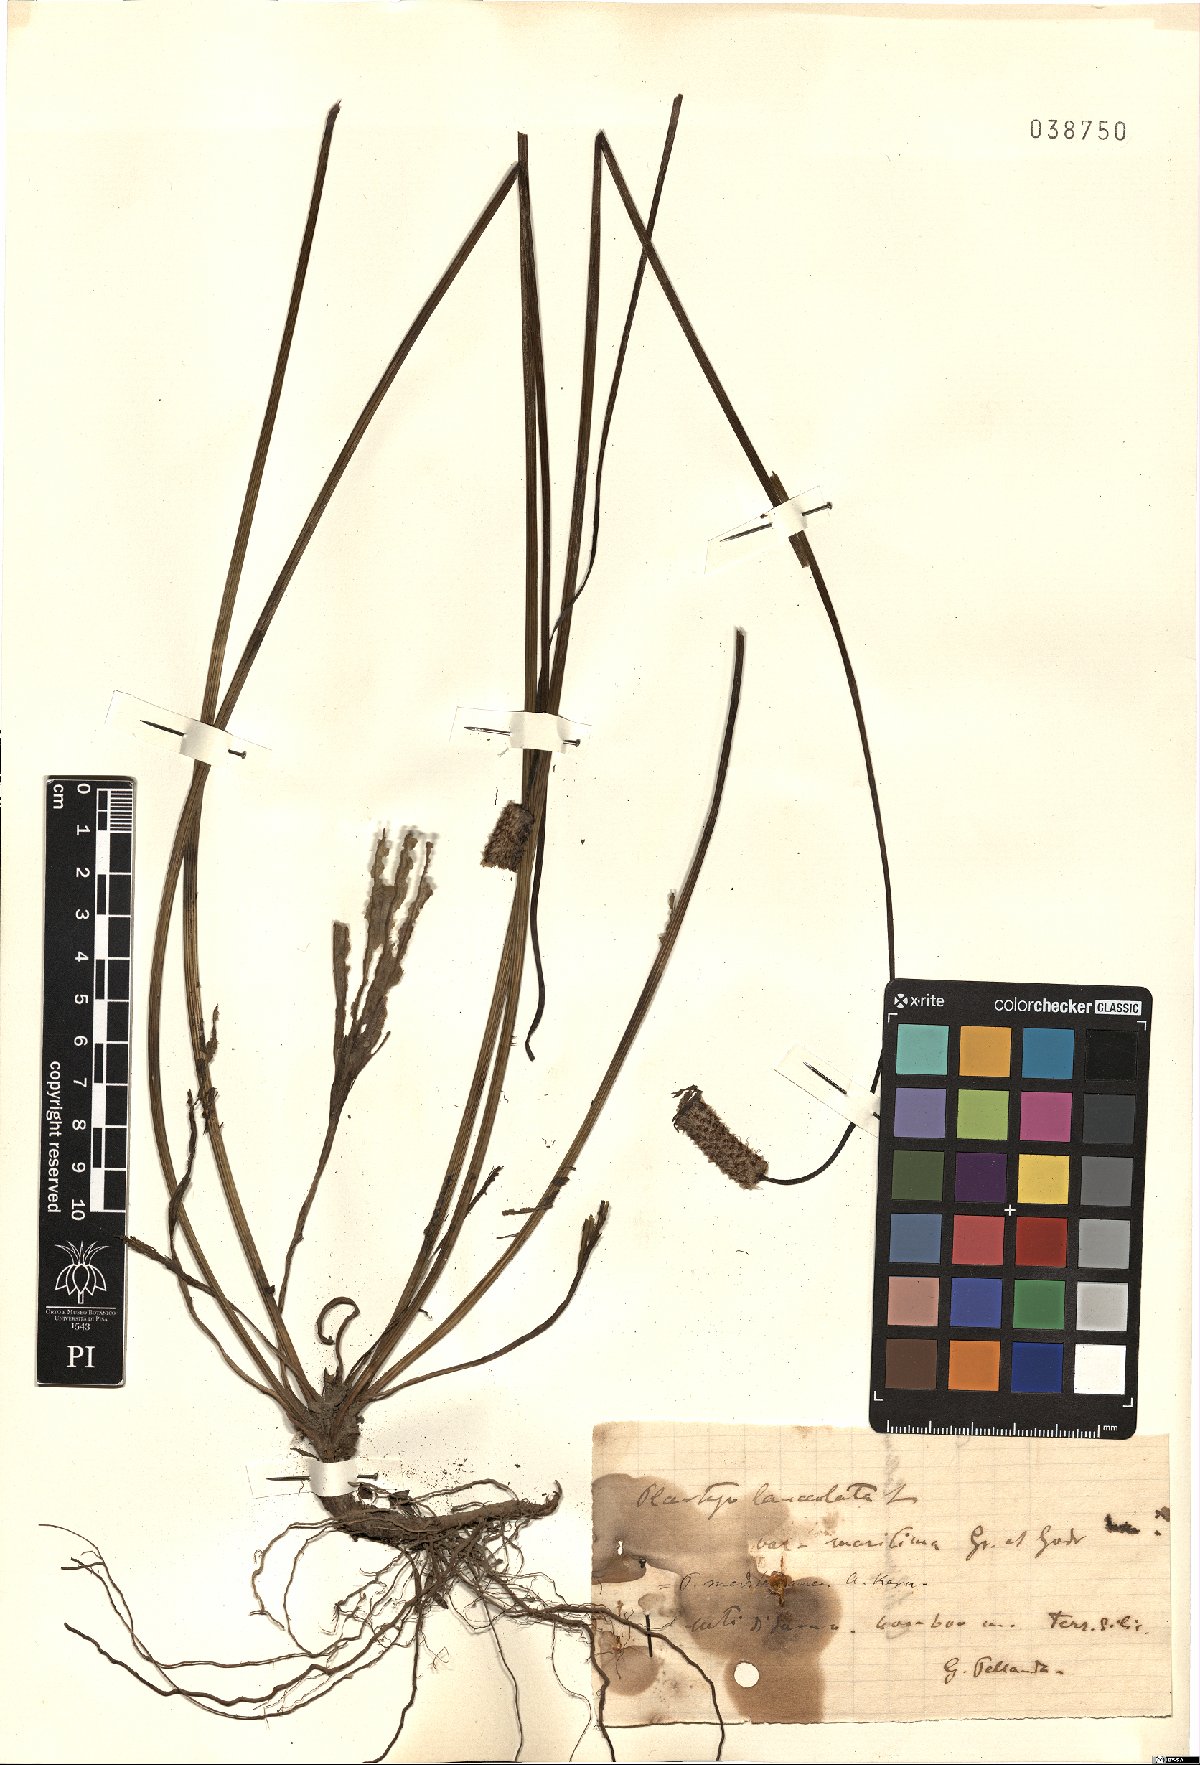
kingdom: Plantae
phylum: Tracheophyta
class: Magnoliopsida
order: Lamiales
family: Plantaginaceae
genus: Plantago
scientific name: Plantago lanceolata
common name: Ribwort plantain
